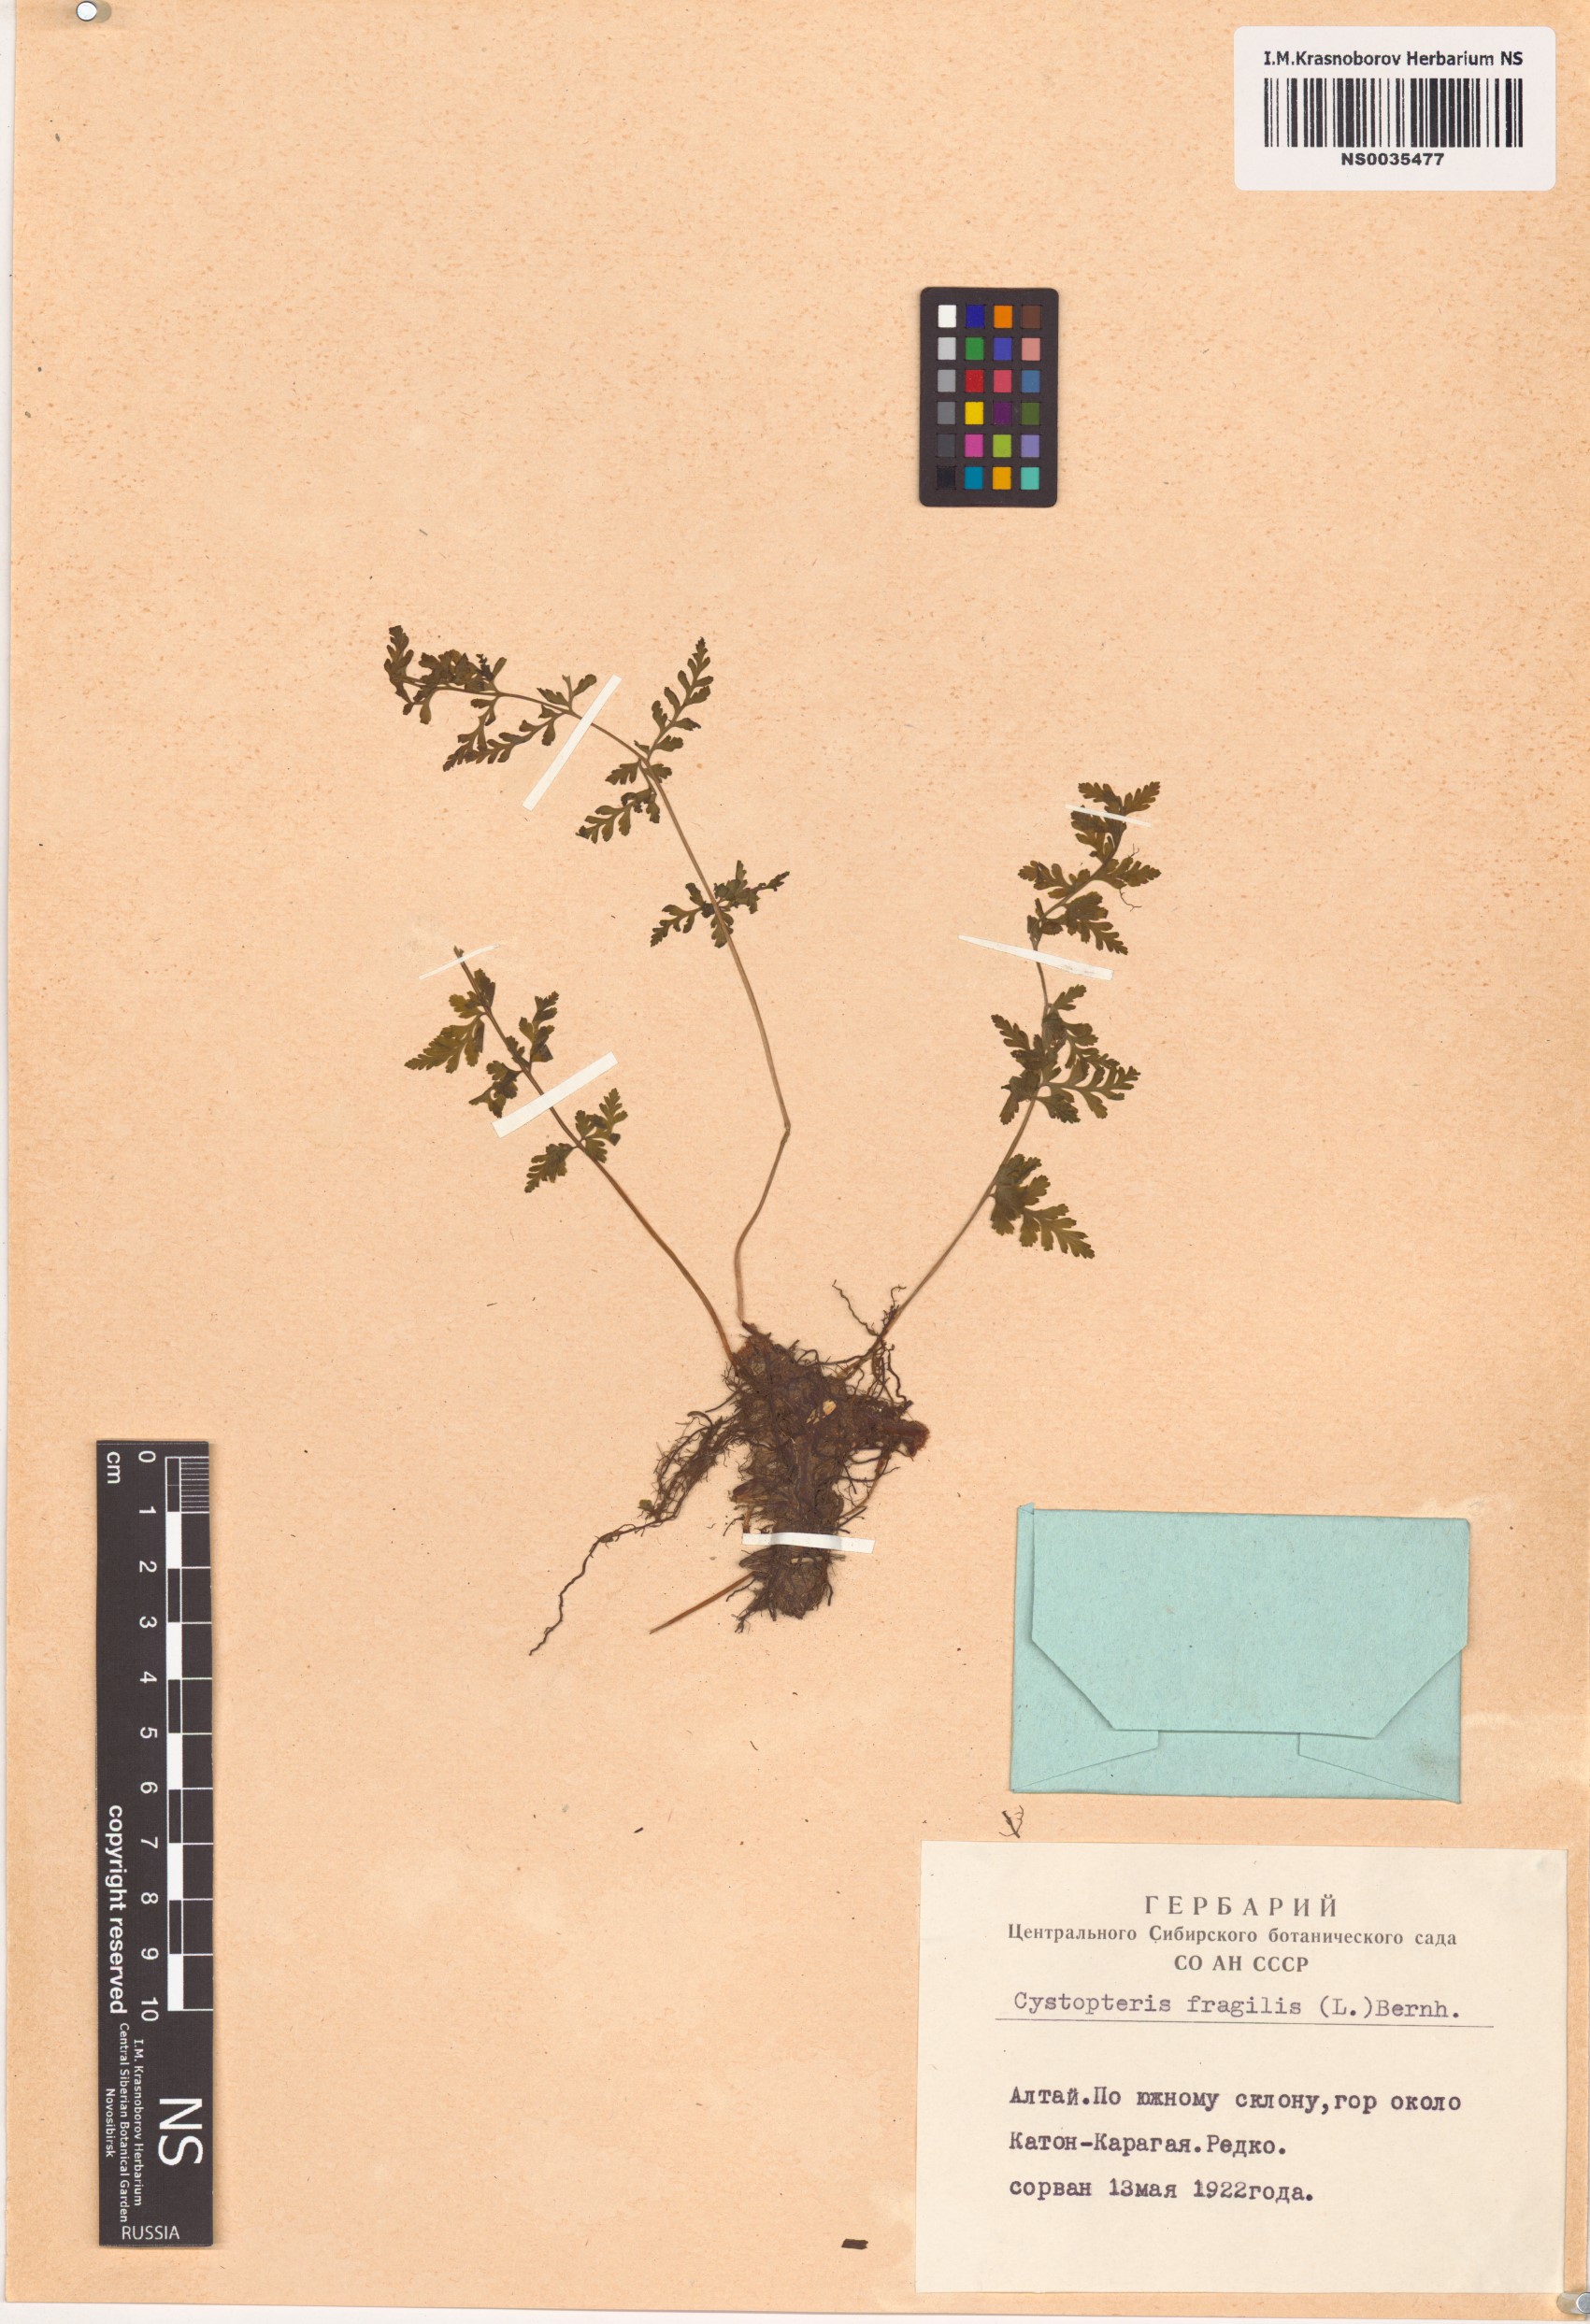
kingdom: Plantae
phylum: Tracheophyta
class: Polypodiopsida
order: Polypodiales
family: Cystopteridaceae
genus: Cystopteris
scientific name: Cystopteris fragilis
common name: Brittle bladder fern
